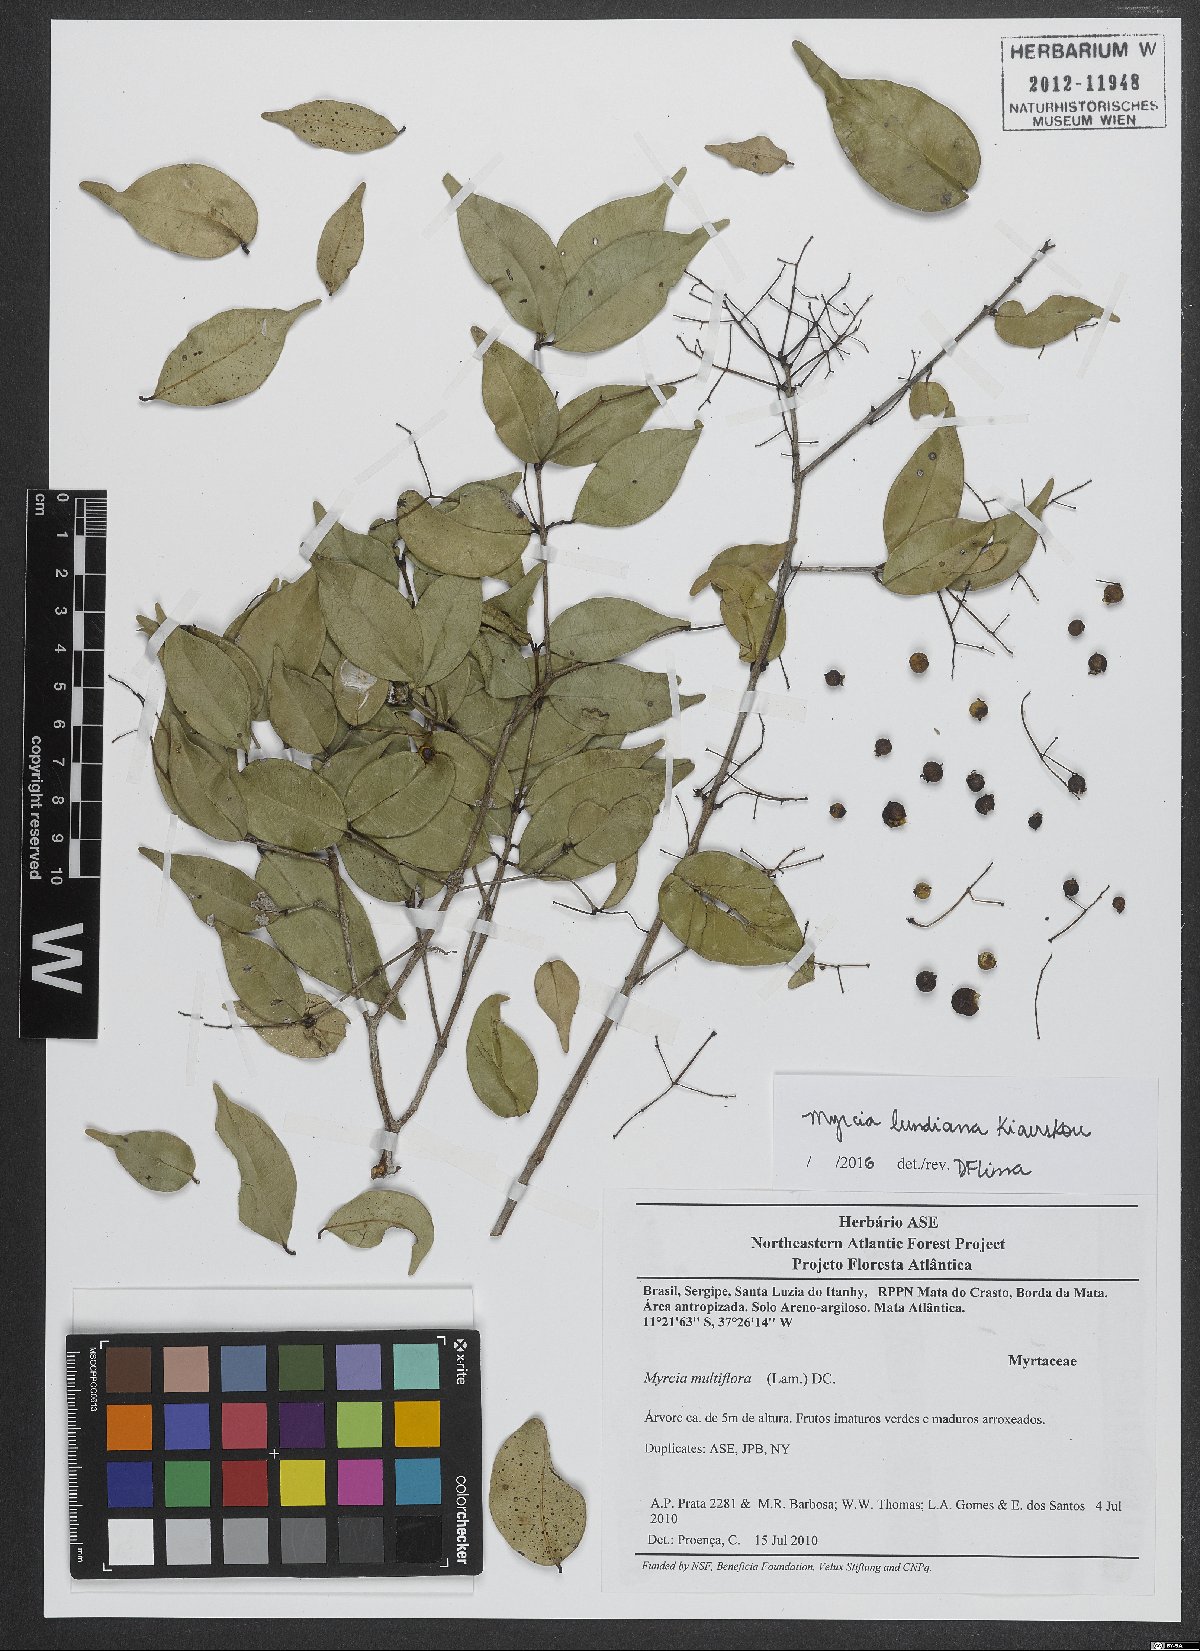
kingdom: Plantae
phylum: Tracheophyta
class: Magnoliopsida
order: Myrtales
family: Myrtaceae
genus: Myrcia
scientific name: Myrcia lundiana
